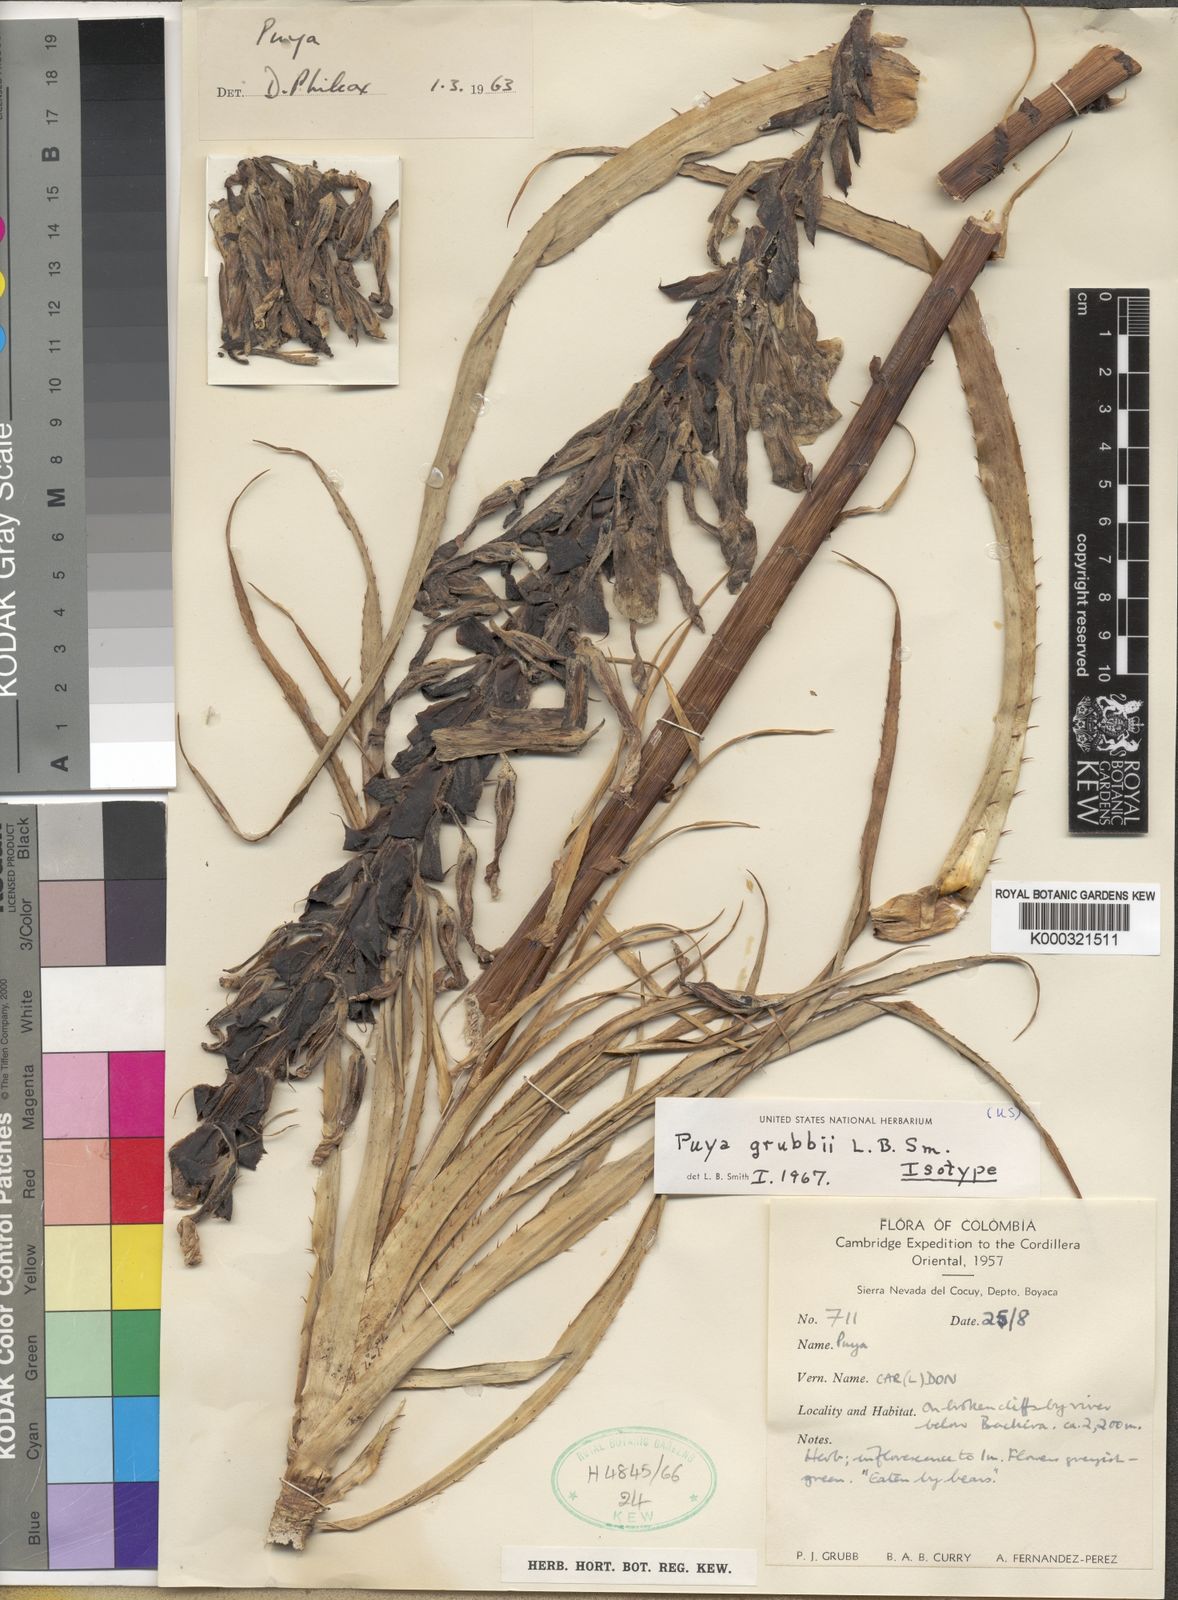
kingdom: Plantae
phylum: Tracheophyta
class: Liliopsida
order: Poales
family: Bromeliaceae
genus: Puya
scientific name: Puya grubbii
